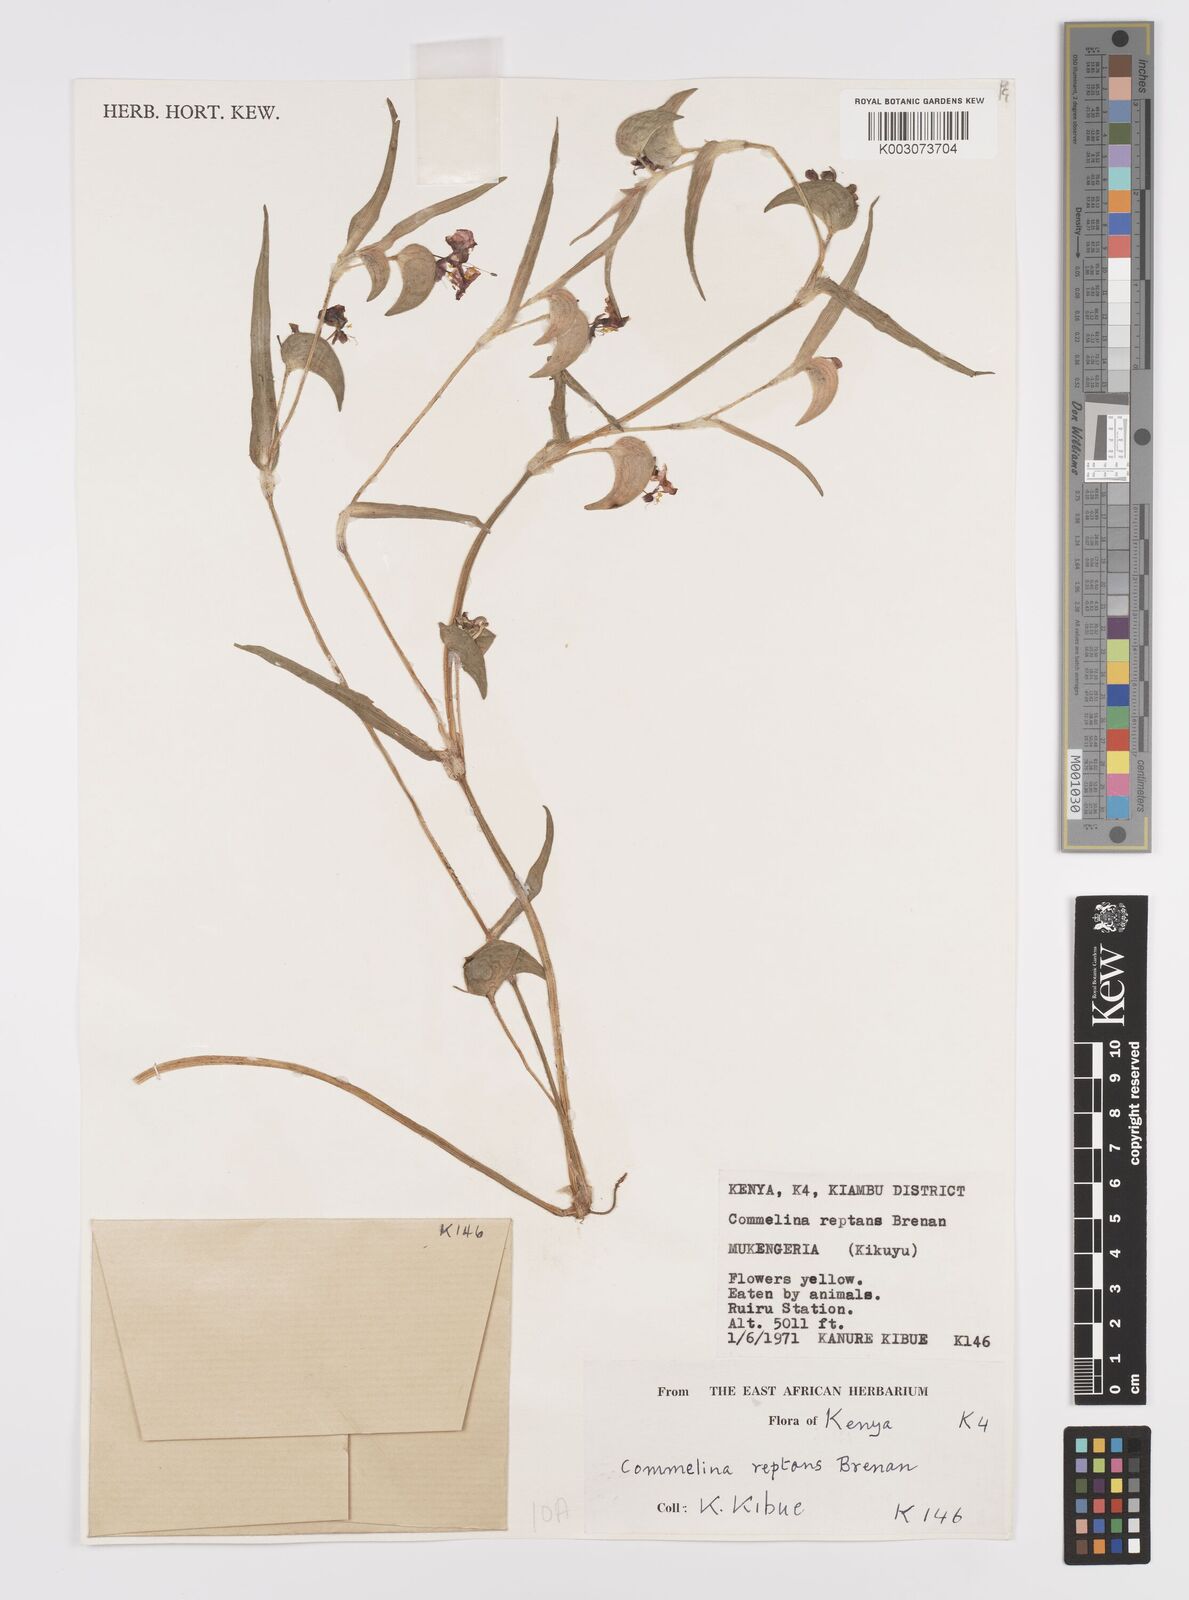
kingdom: Plantae
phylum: Tracheophyta
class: Liliopsida
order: Commelinales
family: Commelinaceae
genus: Commelina
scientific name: Commelina reptans
